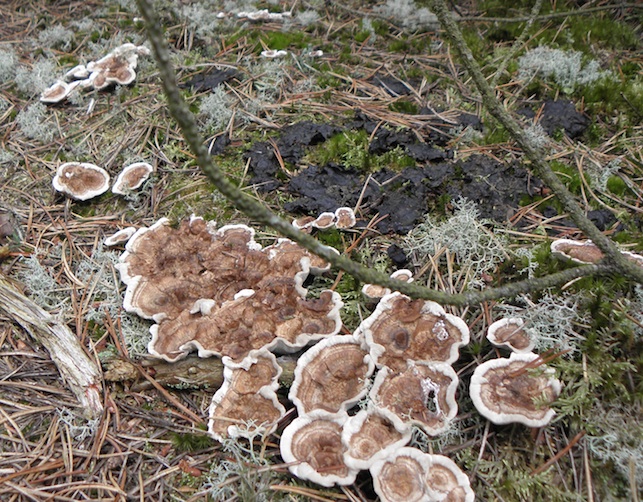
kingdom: Fungi
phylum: Basidiomycota
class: Agaricomycetes
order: Thelephorales
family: Thelephoraceae
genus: Phellodon
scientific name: Phellodon tomentosus
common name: tragtformet duftpigsvamp
